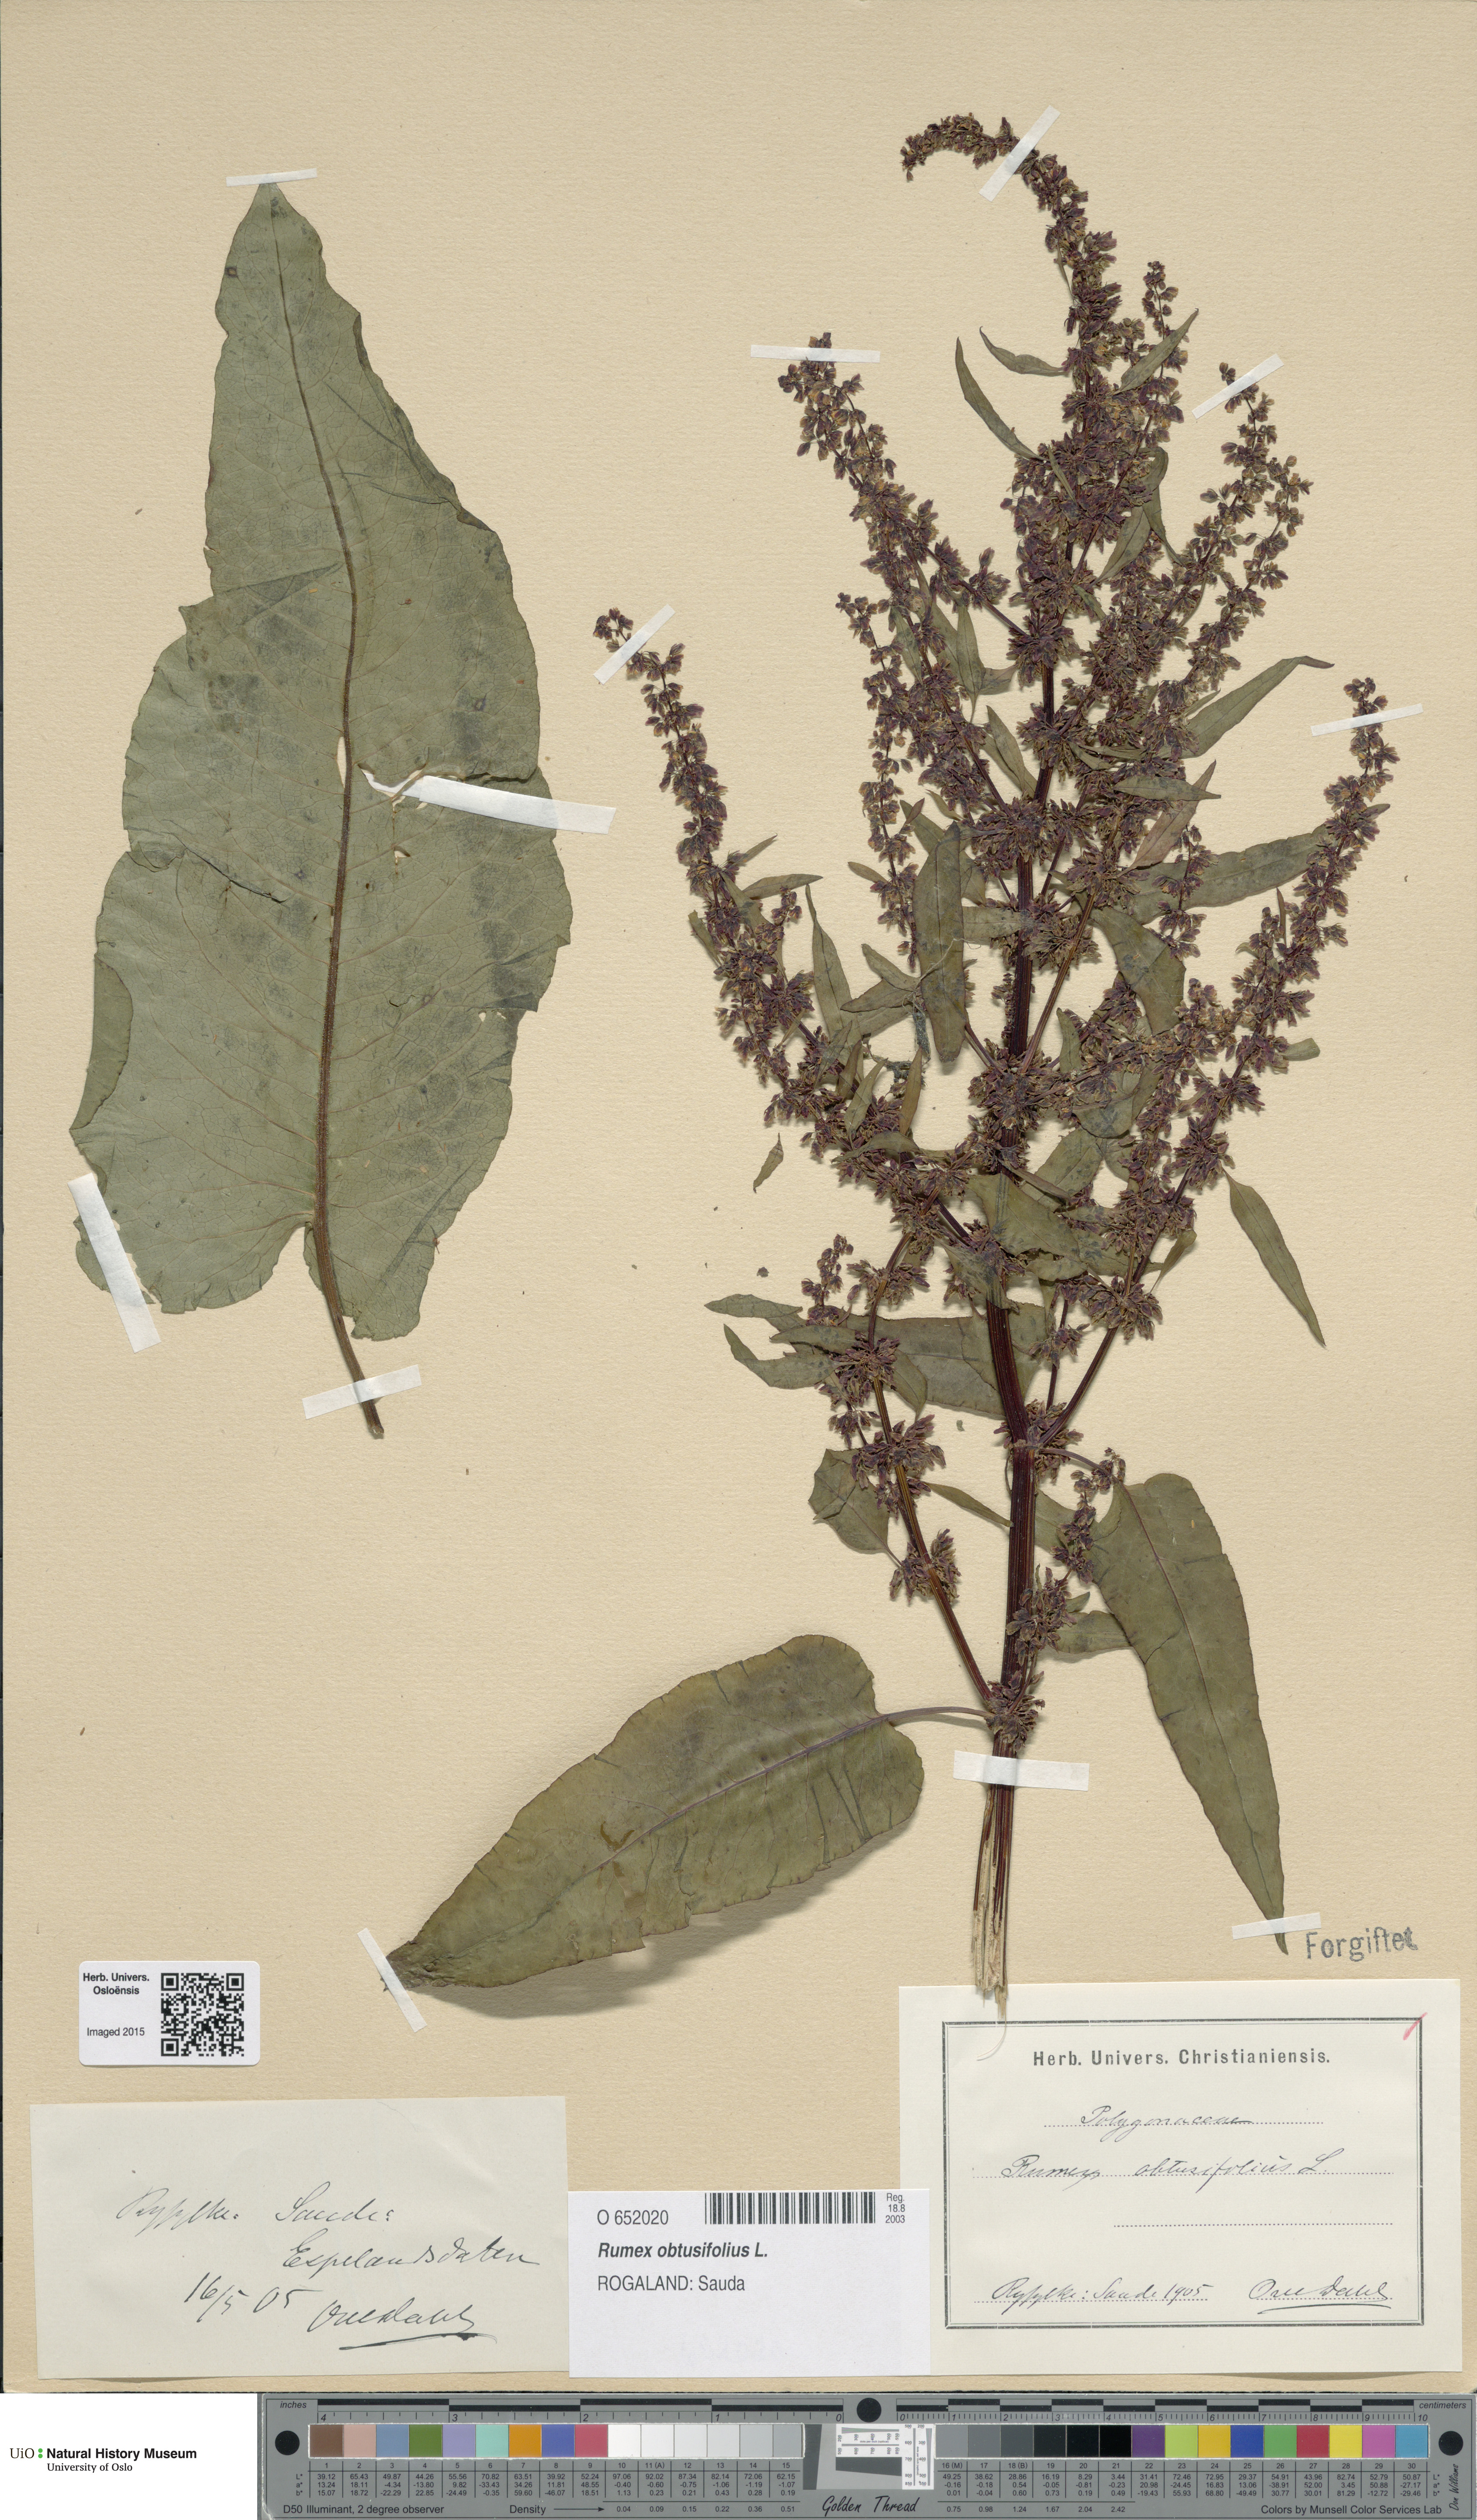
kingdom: Plantae
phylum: Tracheophyta
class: Magnoliopsida
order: Caryophyllales
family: Polygonaceae
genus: Rumex
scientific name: Rumex obtusifolius
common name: Bitter dock
